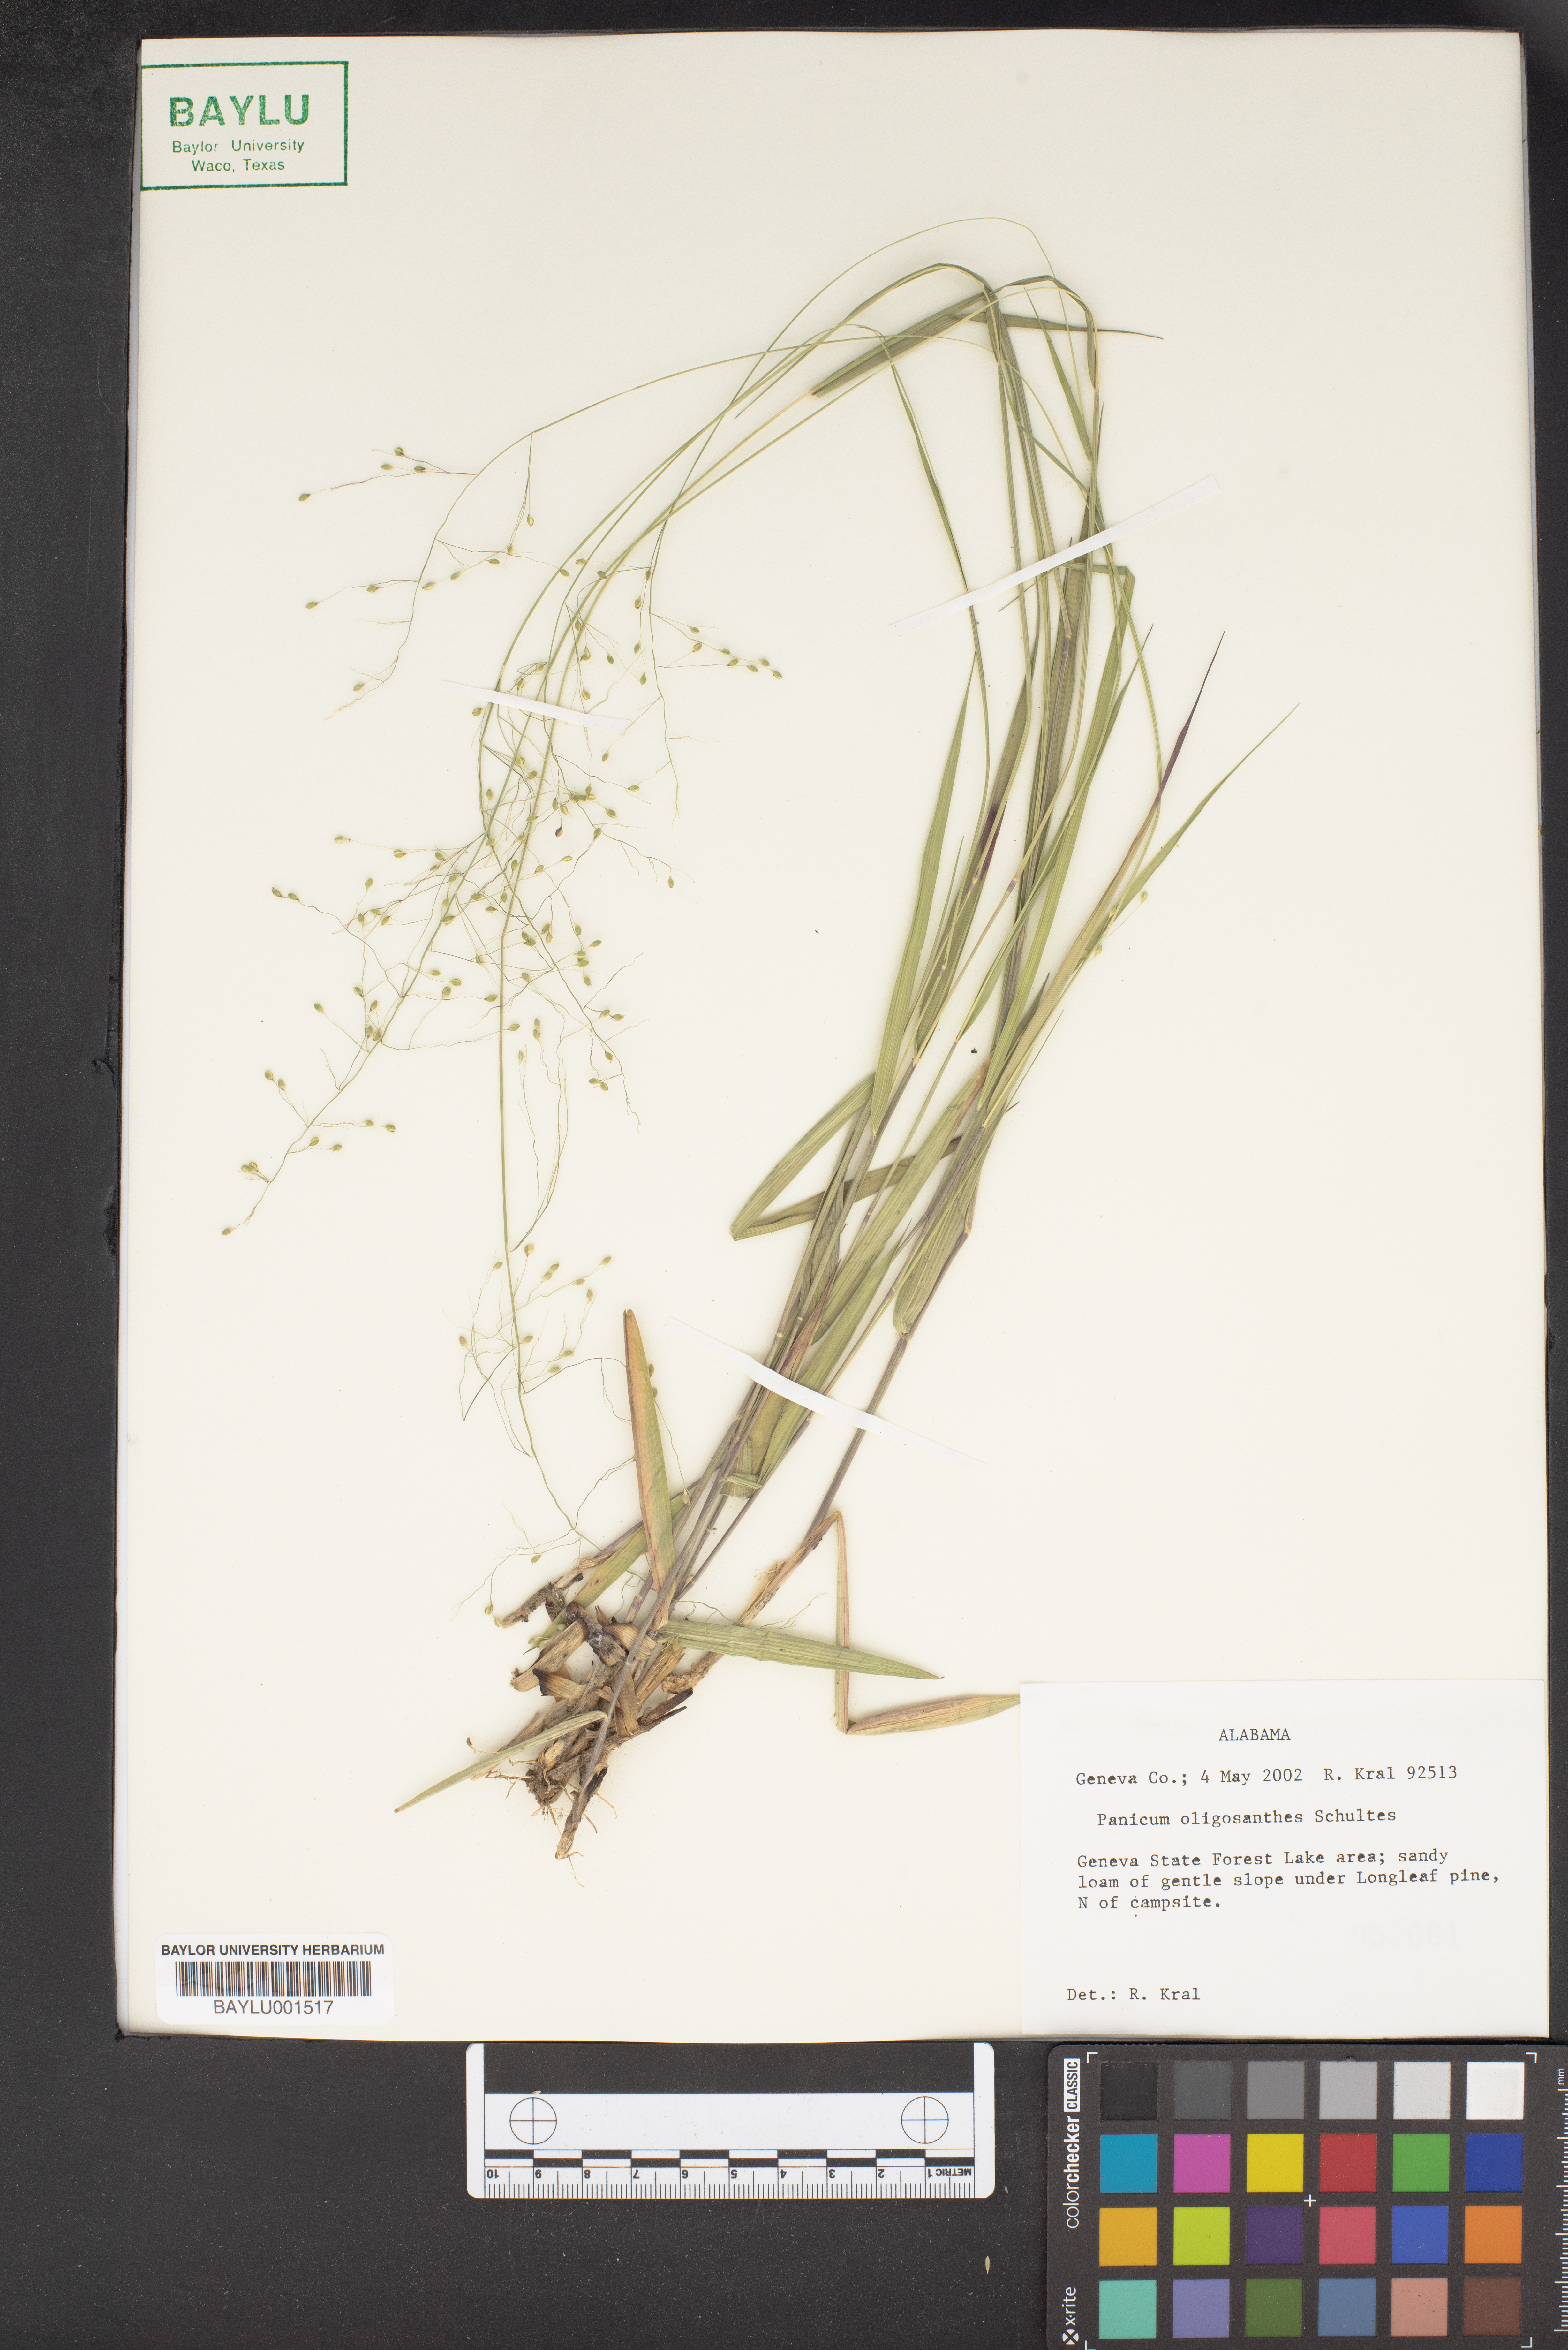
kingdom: Plantae
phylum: Tracheophyta
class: Liliopsida
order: Poales
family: Poaceae
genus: Dichanthelium
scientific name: Dichanthelium oligosanthes
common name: Few-anther obscuregrass
